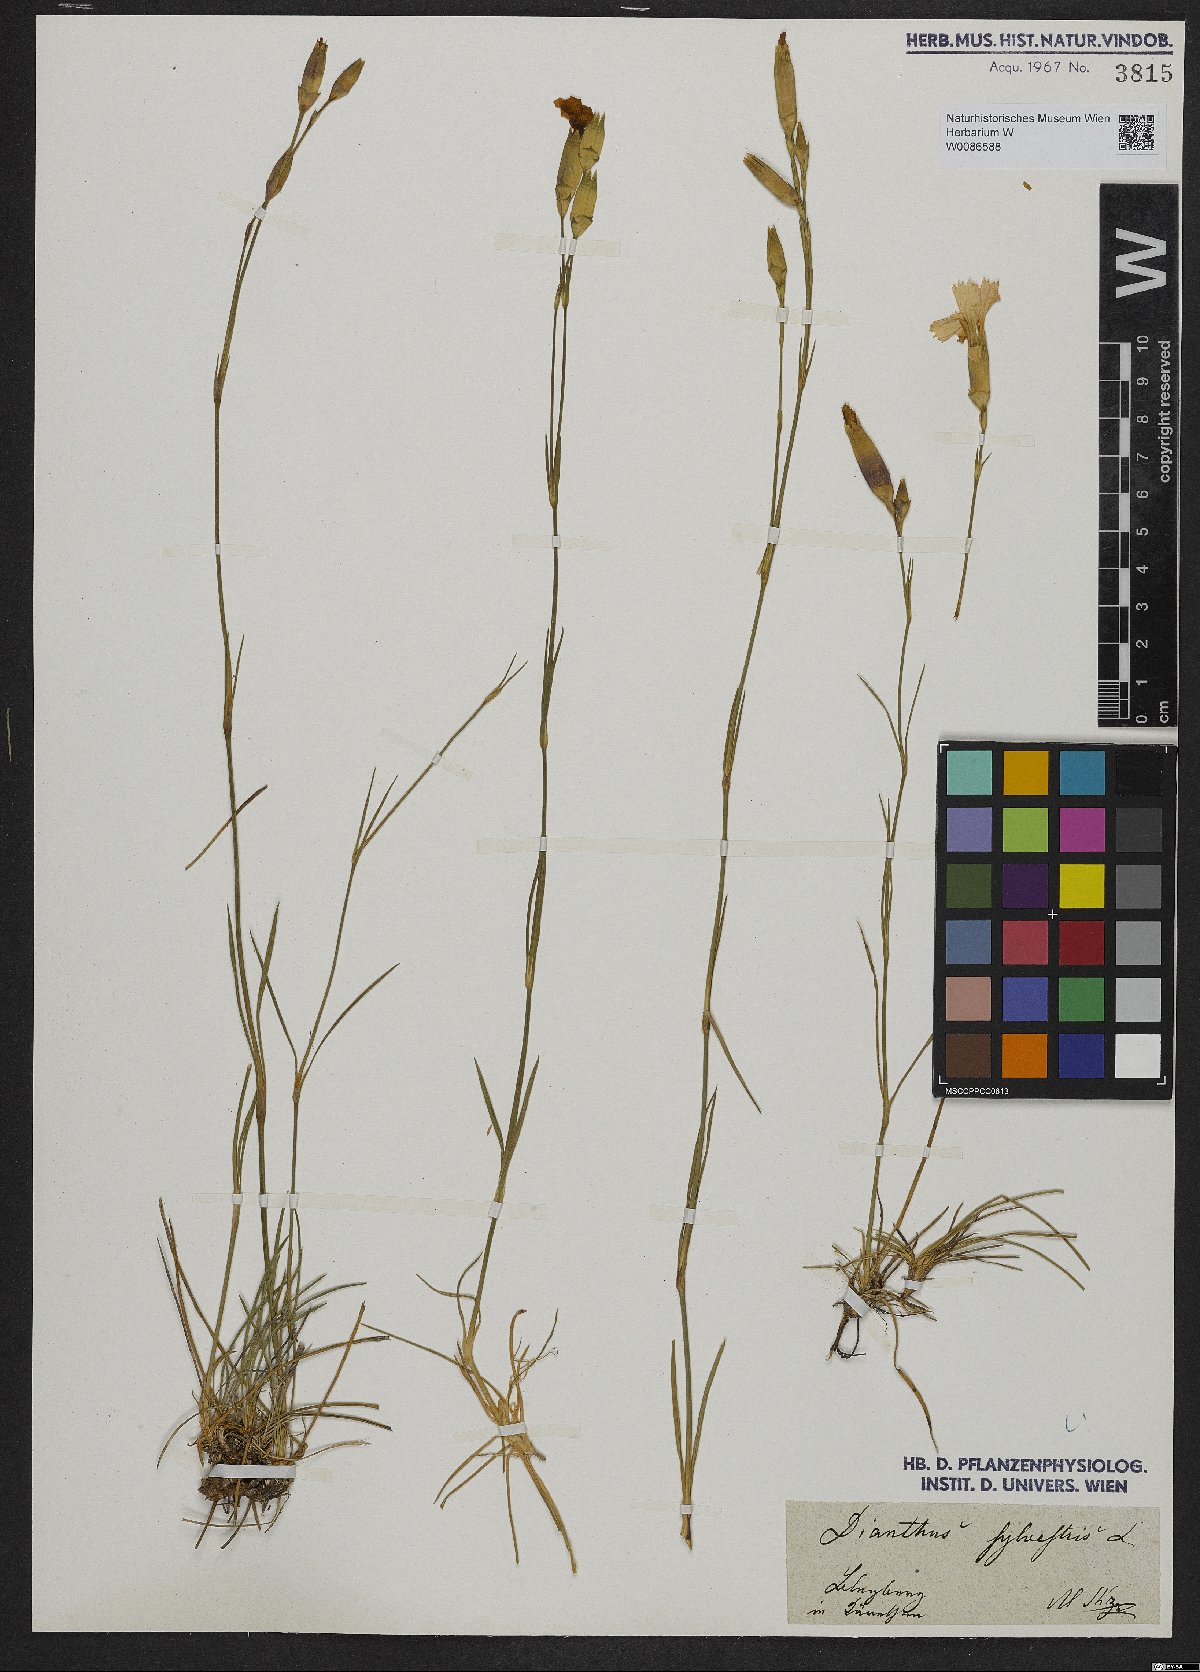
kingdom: Plantae
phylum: Tracheophyta
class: Magnoliopsida
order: Caryophyllales
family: Caryophyllaceae
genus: Dianthus
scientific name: Dianthus sylvestris
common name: Wood pink
